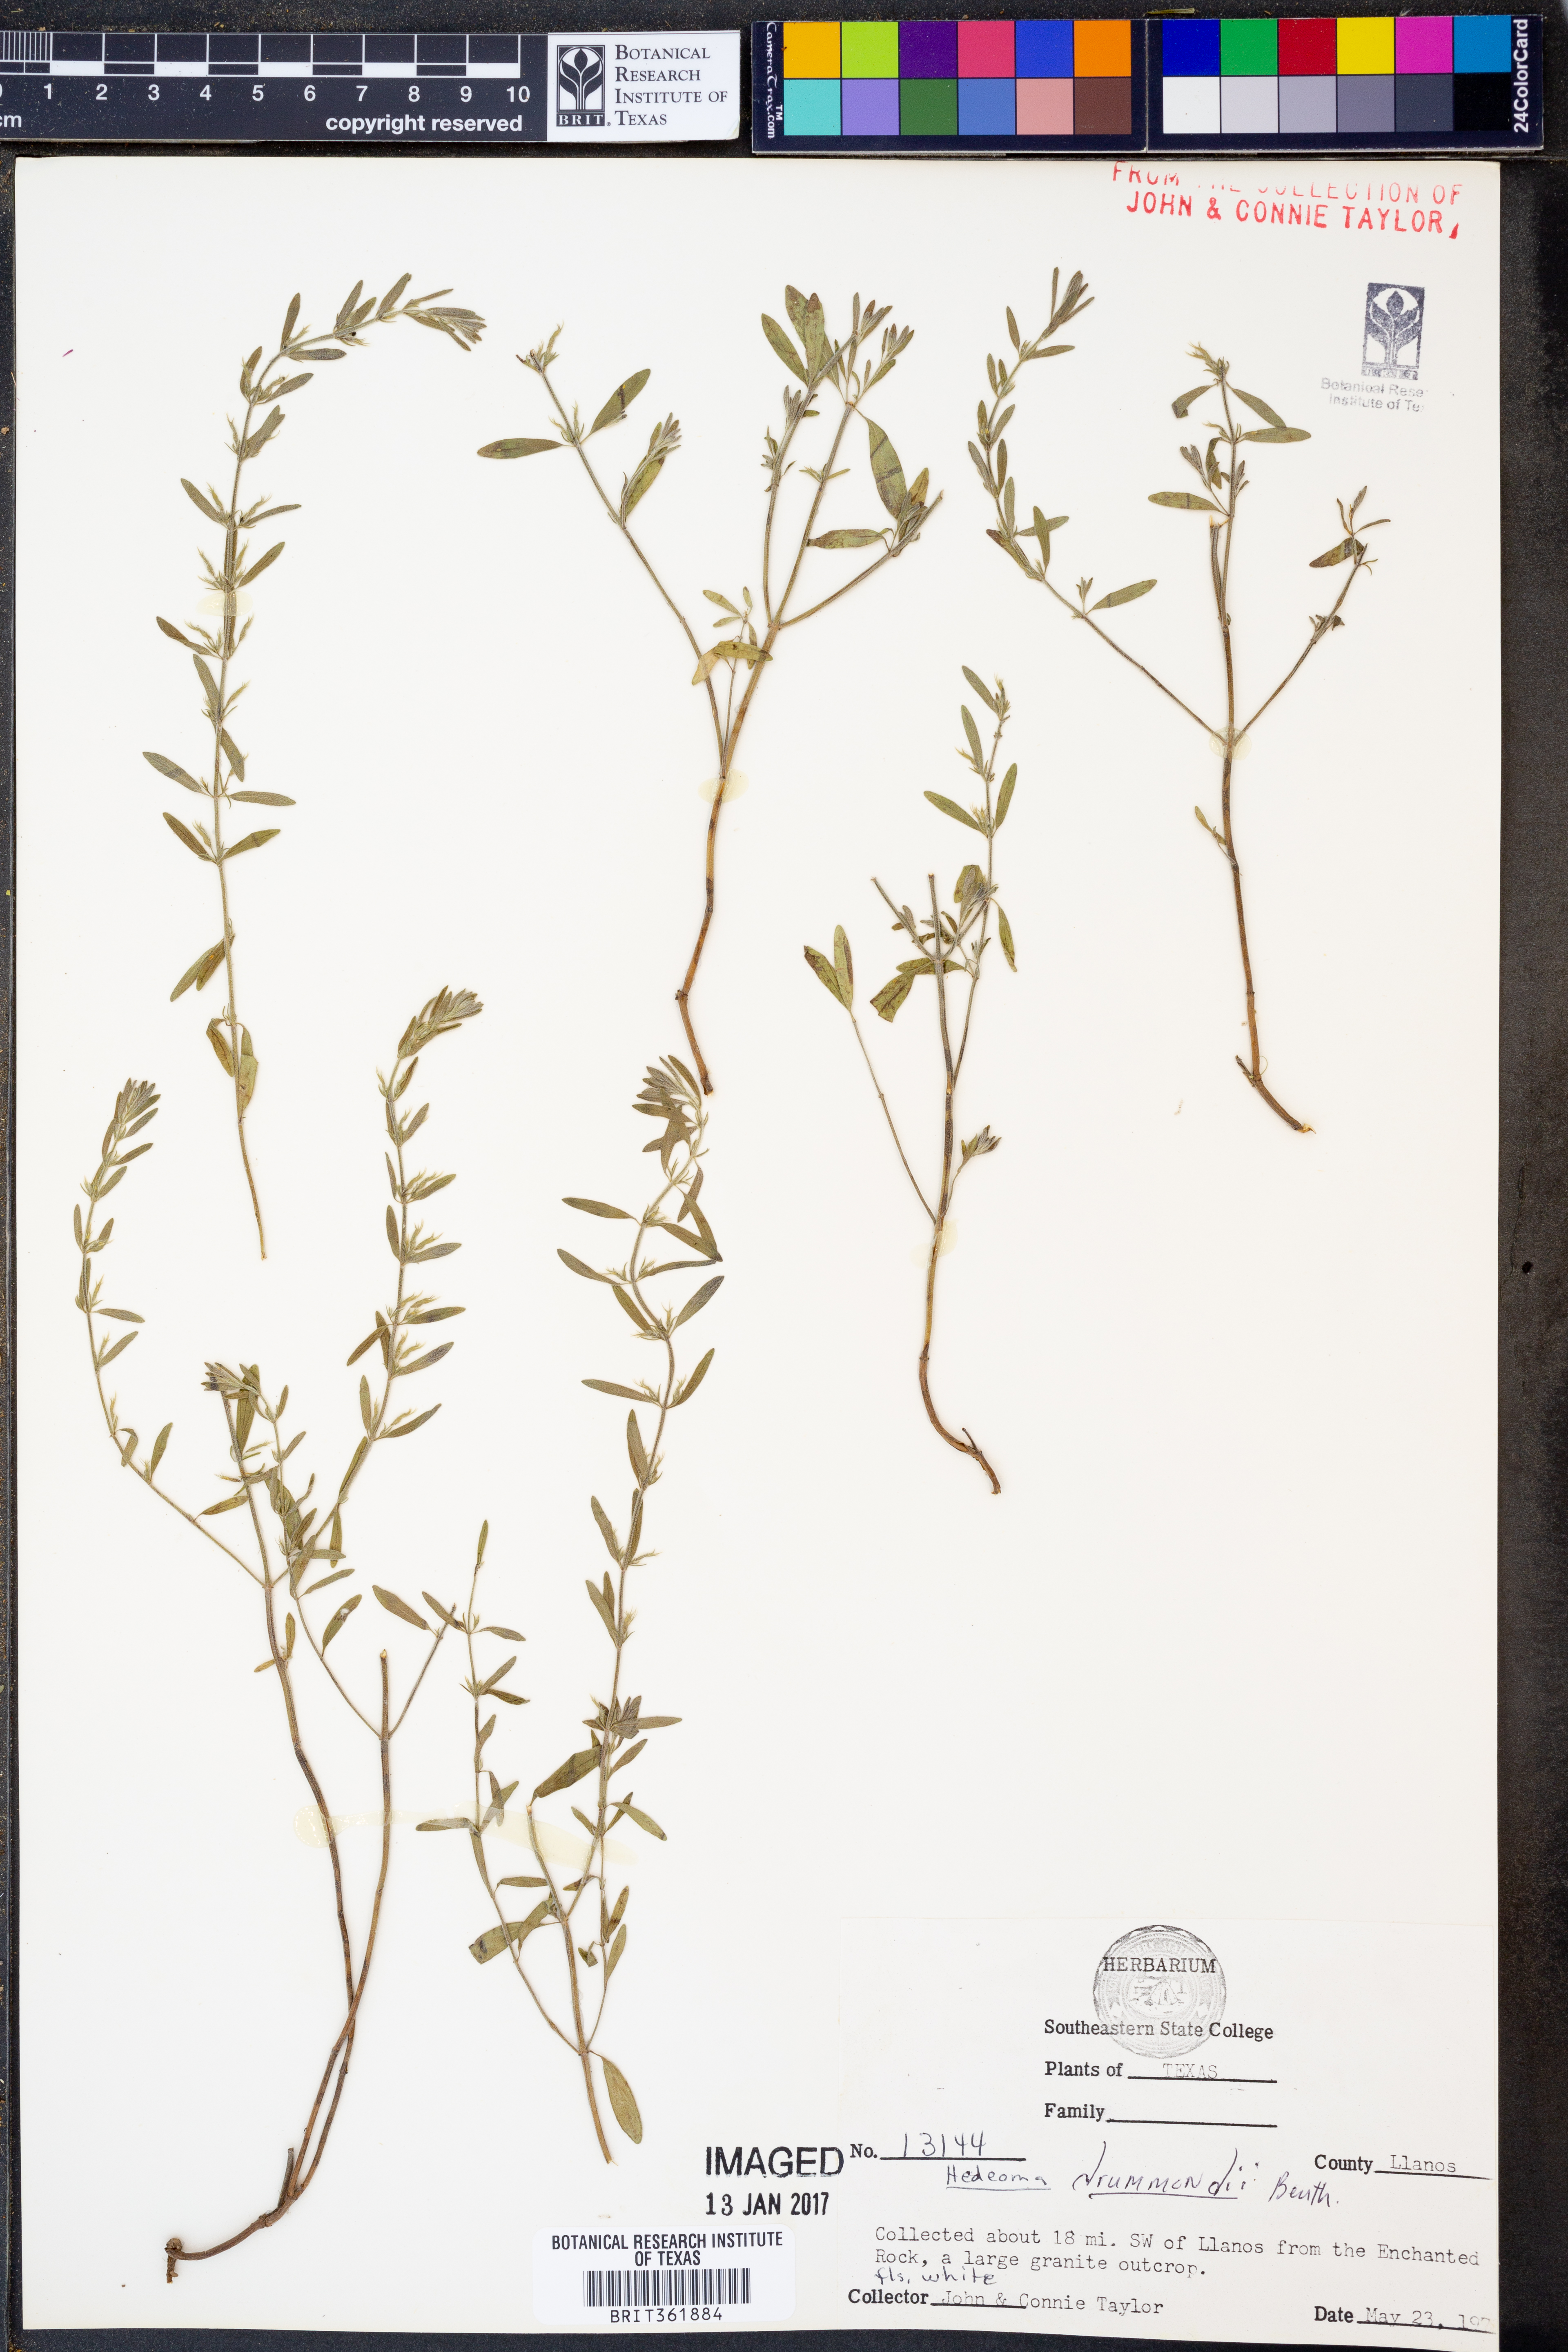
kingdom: Plantae
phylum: Tracheophyta
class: Magnoliopsida
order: Lamiales
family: Lamiaceae
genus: Hedeoma
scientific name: Hedeoma drummondii
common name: New mexico pennyroyal
